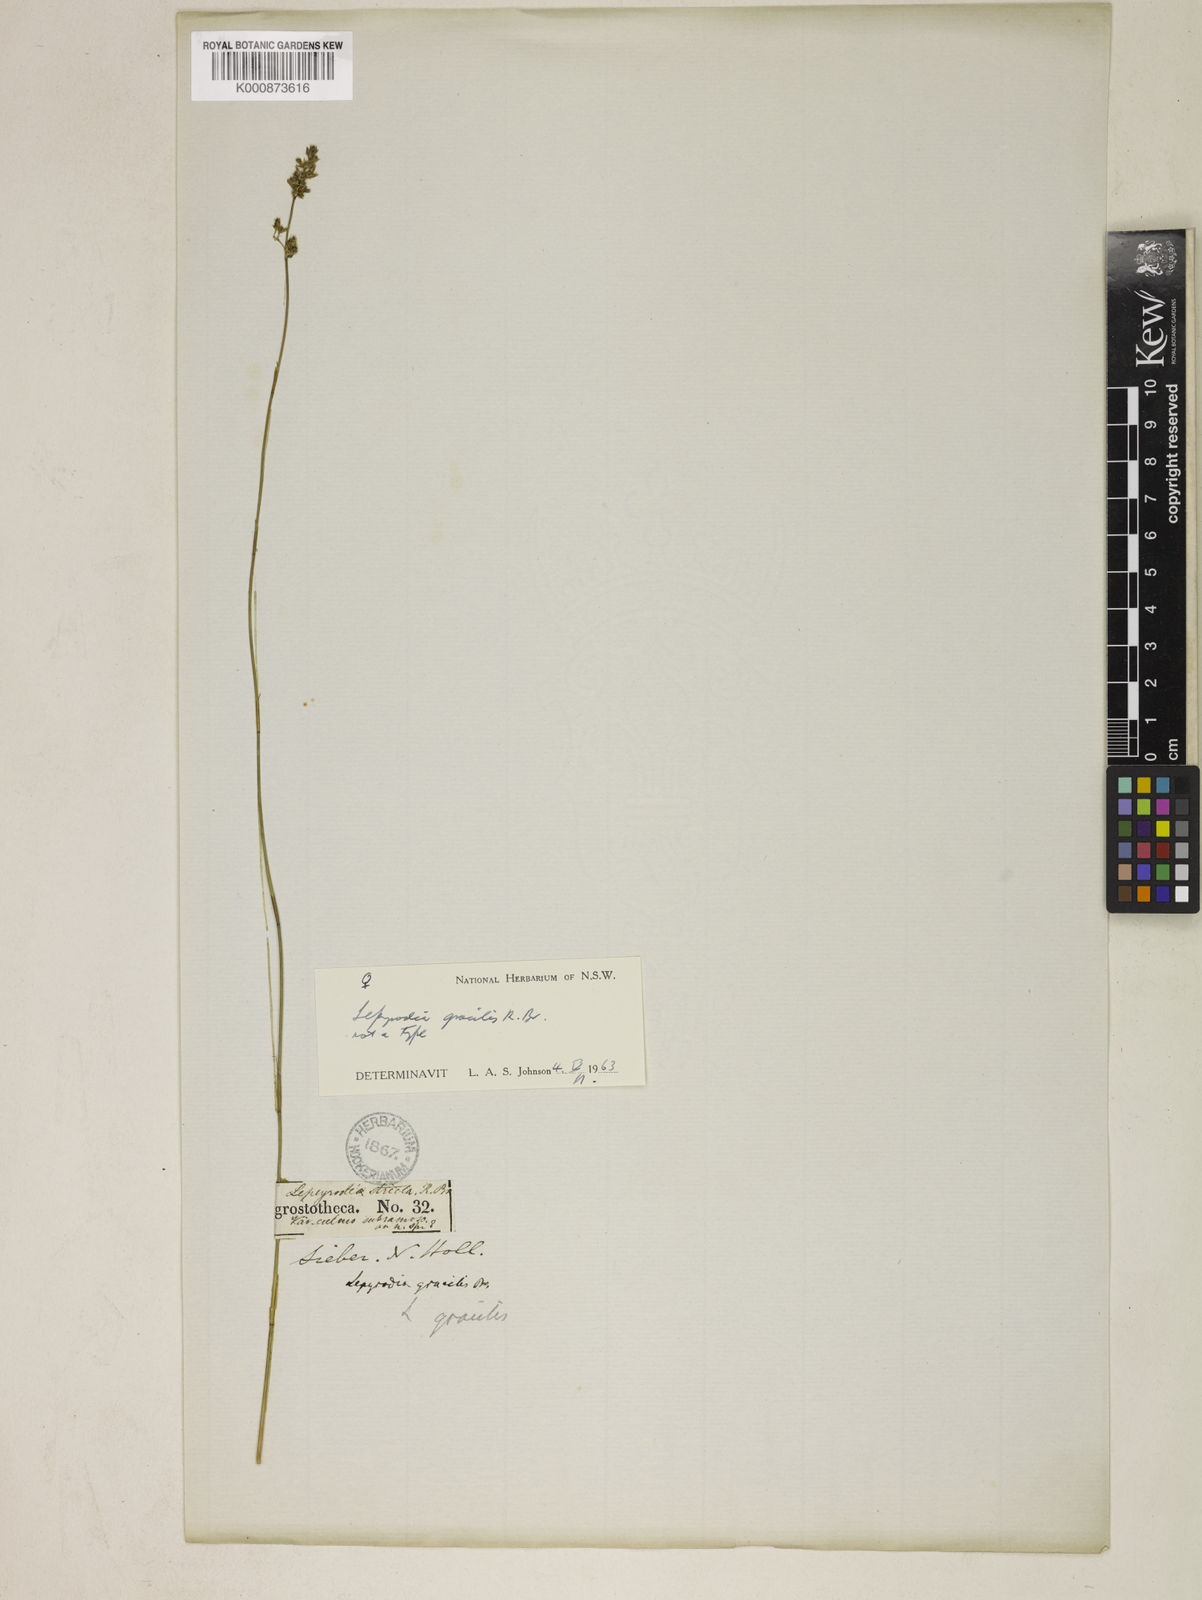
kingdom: Plantae
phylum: Tracheophyta
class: Liliopsida
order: Poales
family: Restionaceae
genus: Sporadanthus
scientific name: Sporadanthus gracilis
